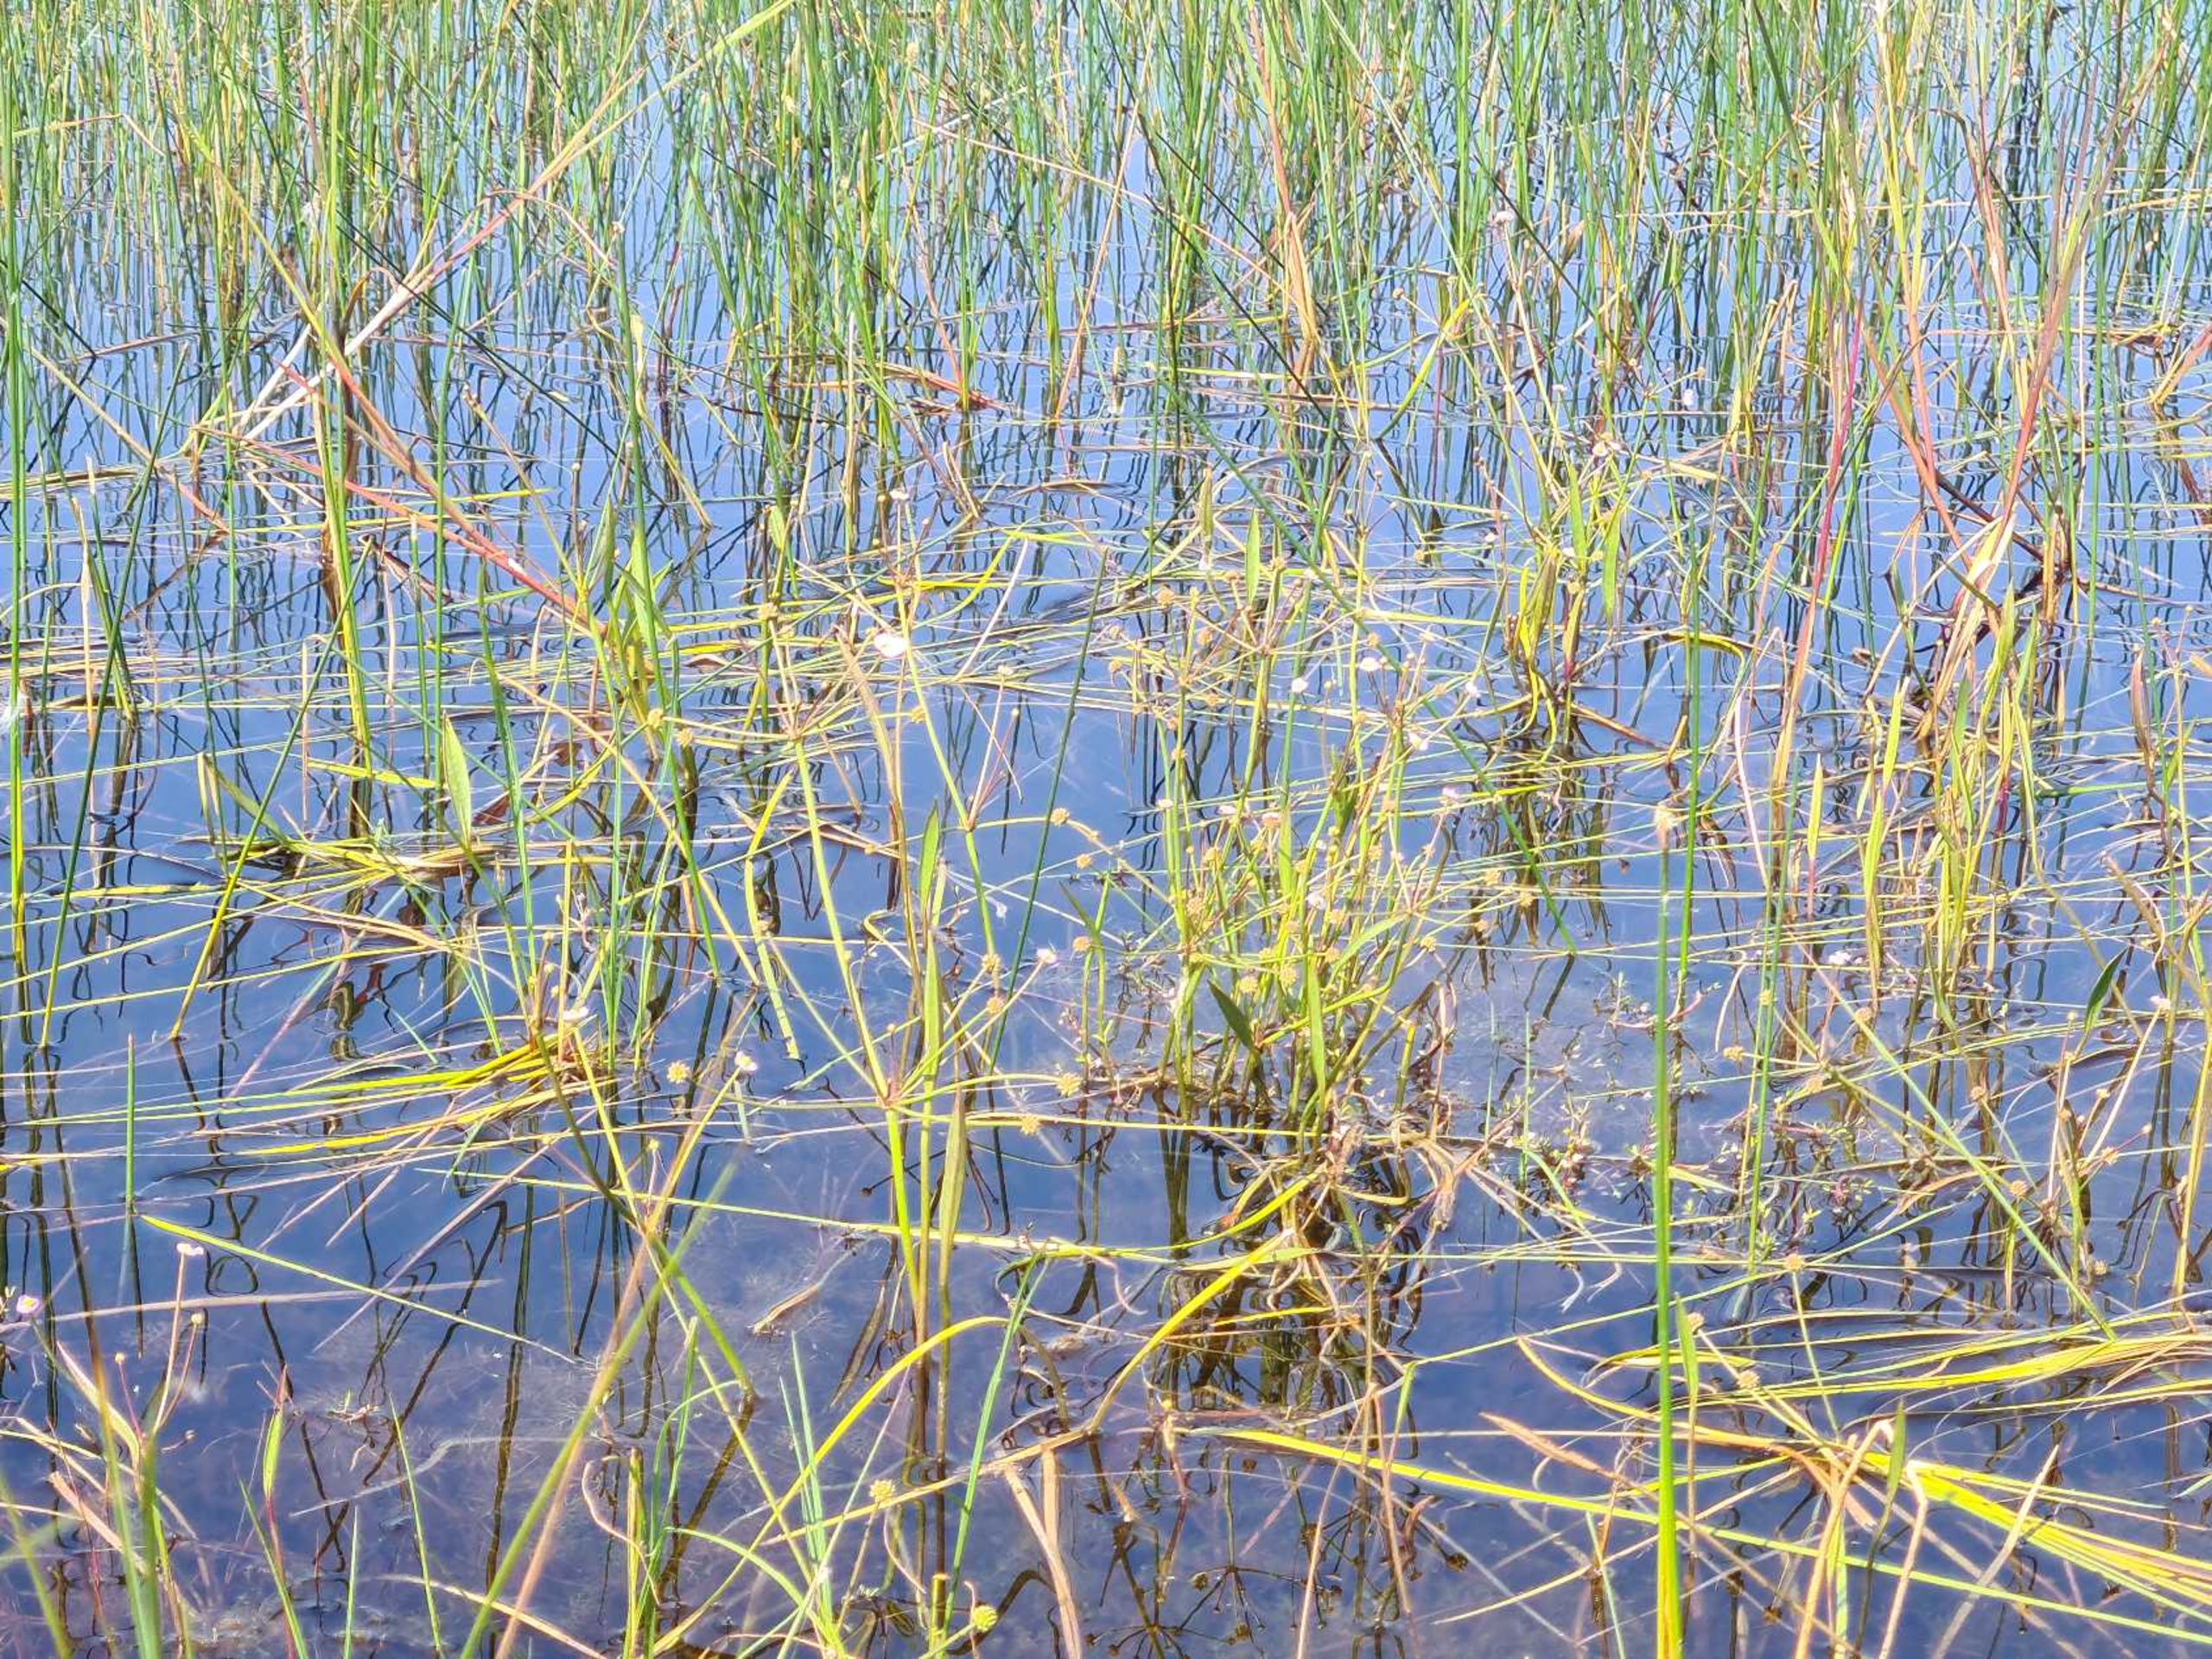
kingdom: Plantae
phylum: Tracheophyta
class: Liliopsida
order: Alismatales
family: Alismataceae
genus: Baldellia
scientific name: Baldellia ranunculoides
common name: Søpryd
